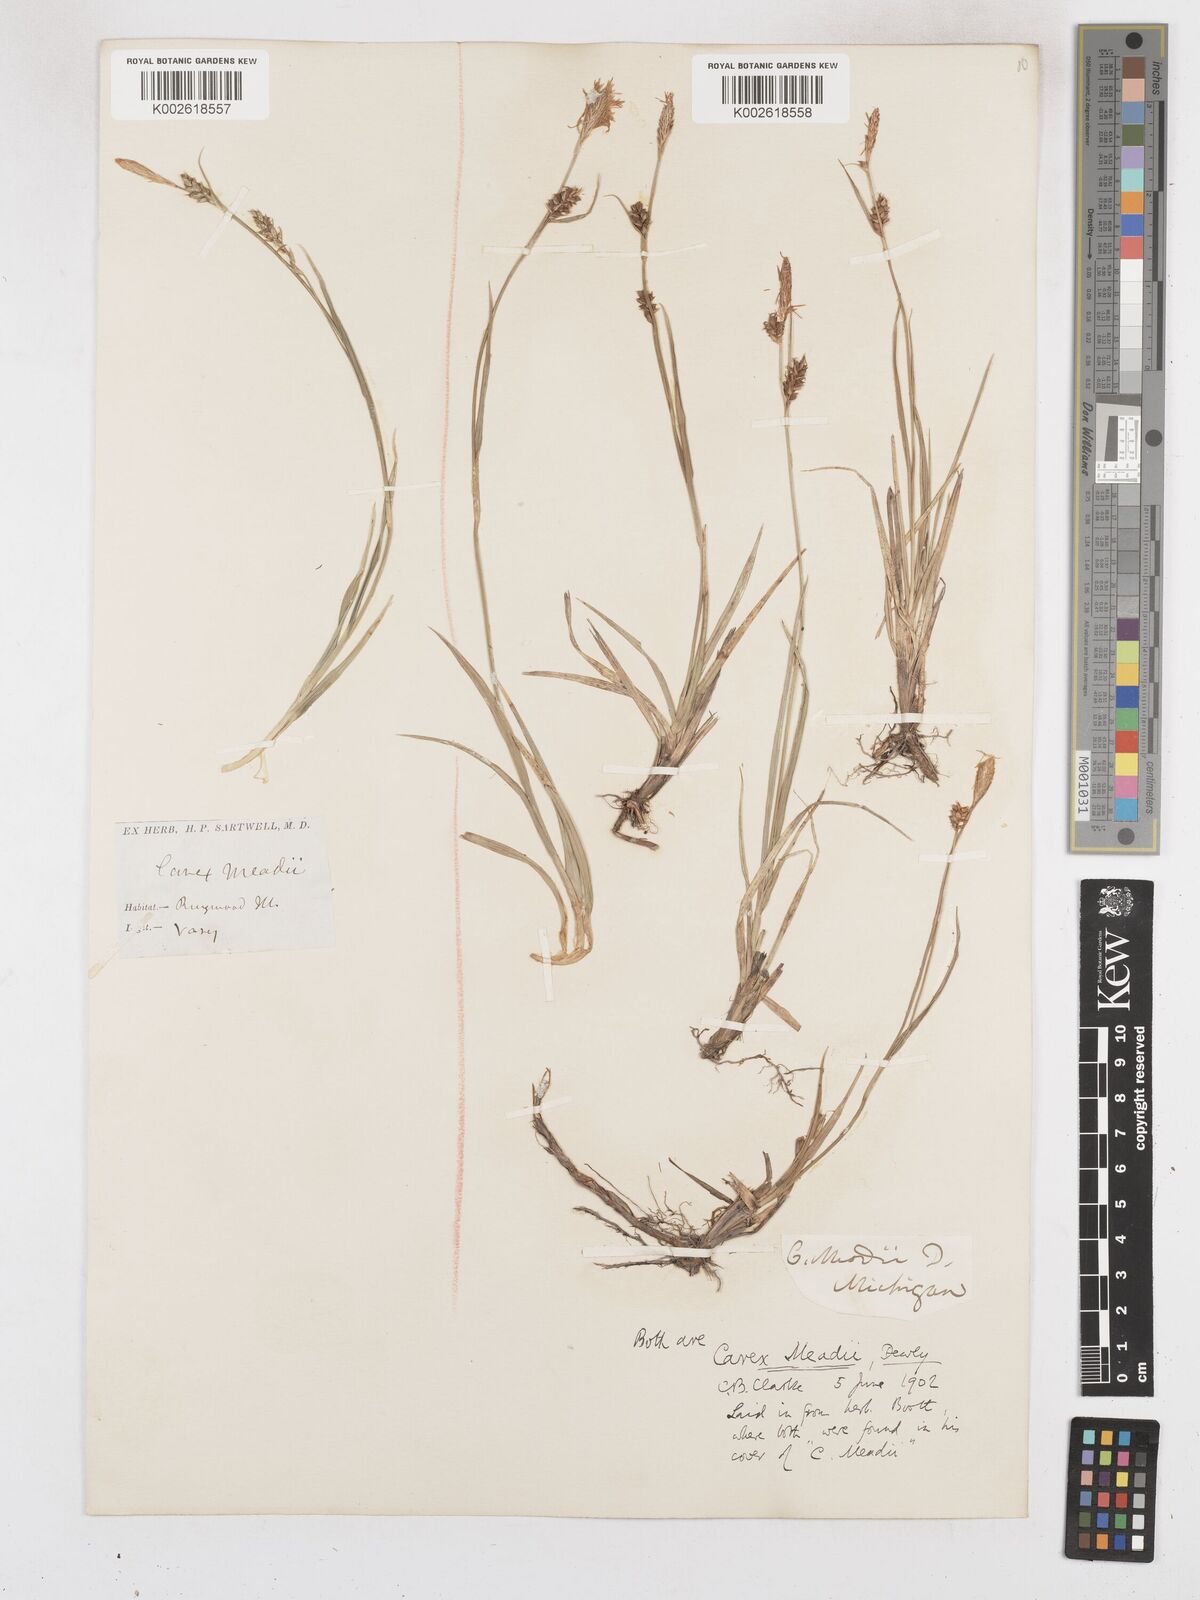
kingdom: Plantae
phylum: Tracheophyta
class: Liliopsida
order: Poales
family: Cyperaceae
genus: Carex
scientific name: Carex meadii
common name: Mead's sedge
